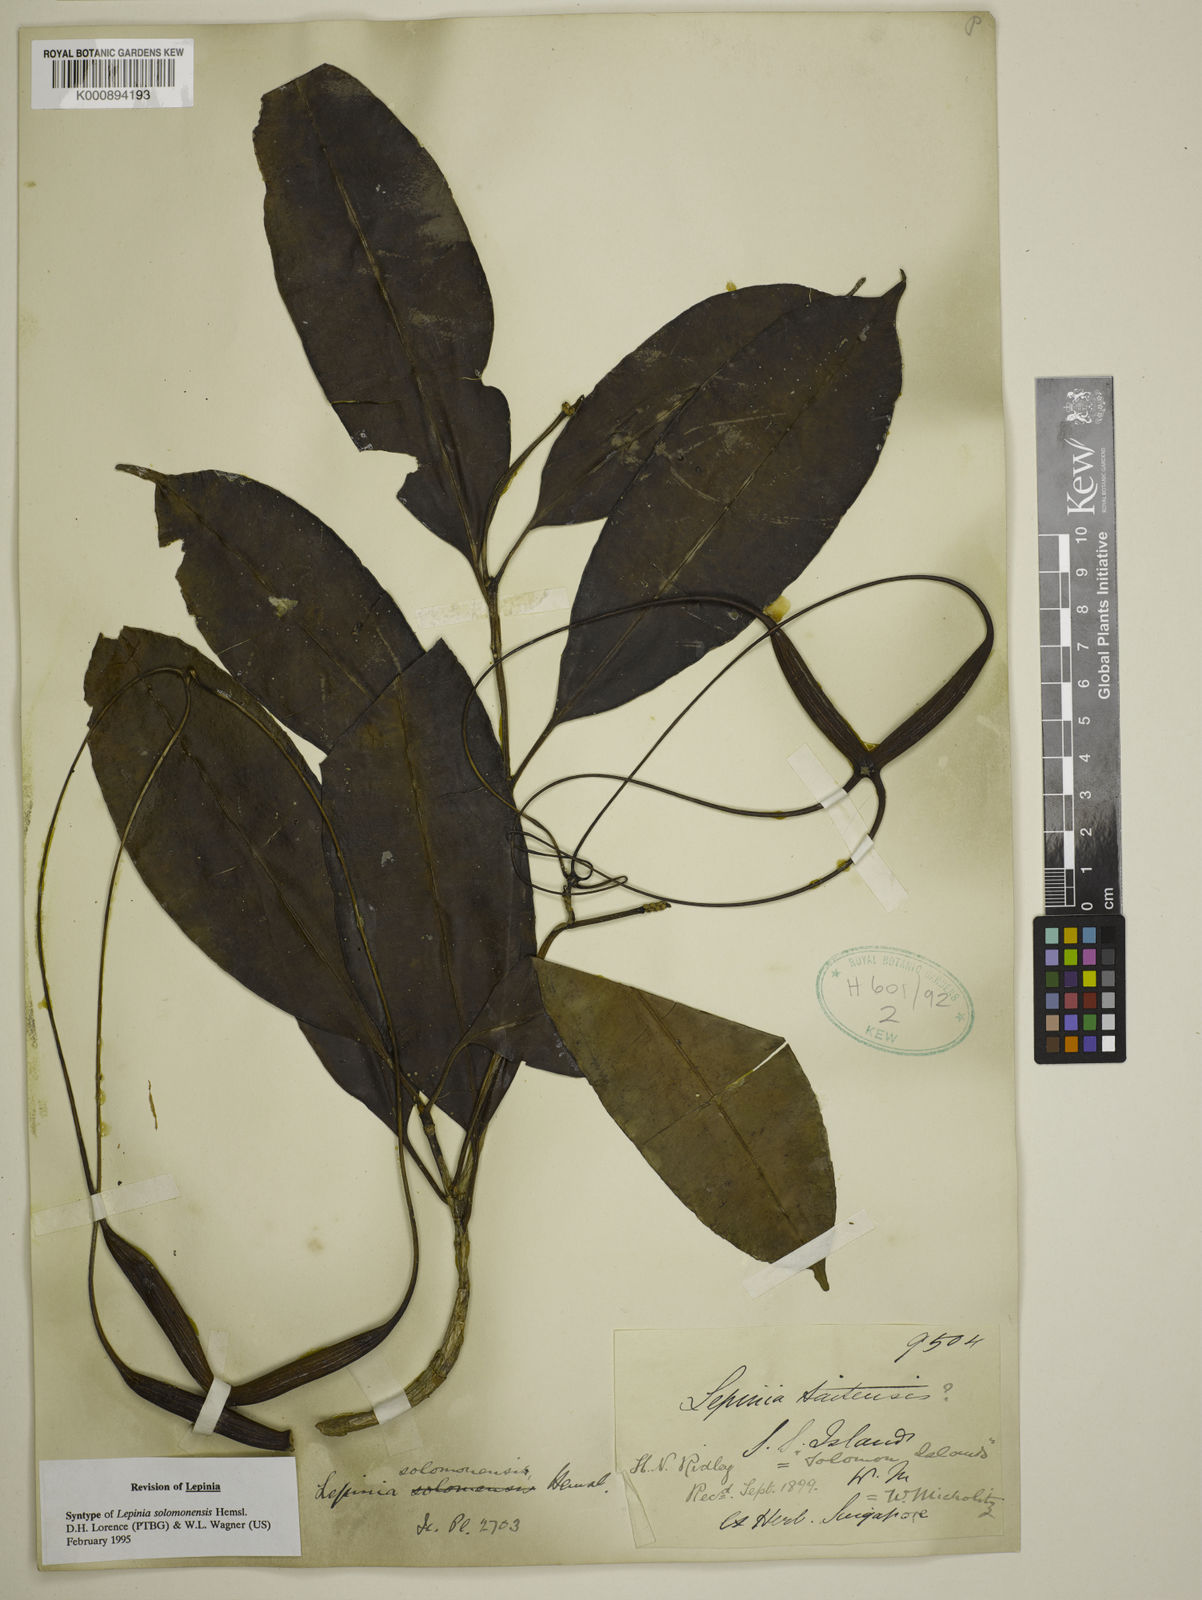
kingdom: Plantae
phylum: Tracheophyta
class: Magnoliopsida
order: Gentianales
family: Apocynaceae
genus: Lepinia
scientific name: Lepinia solomonensis
